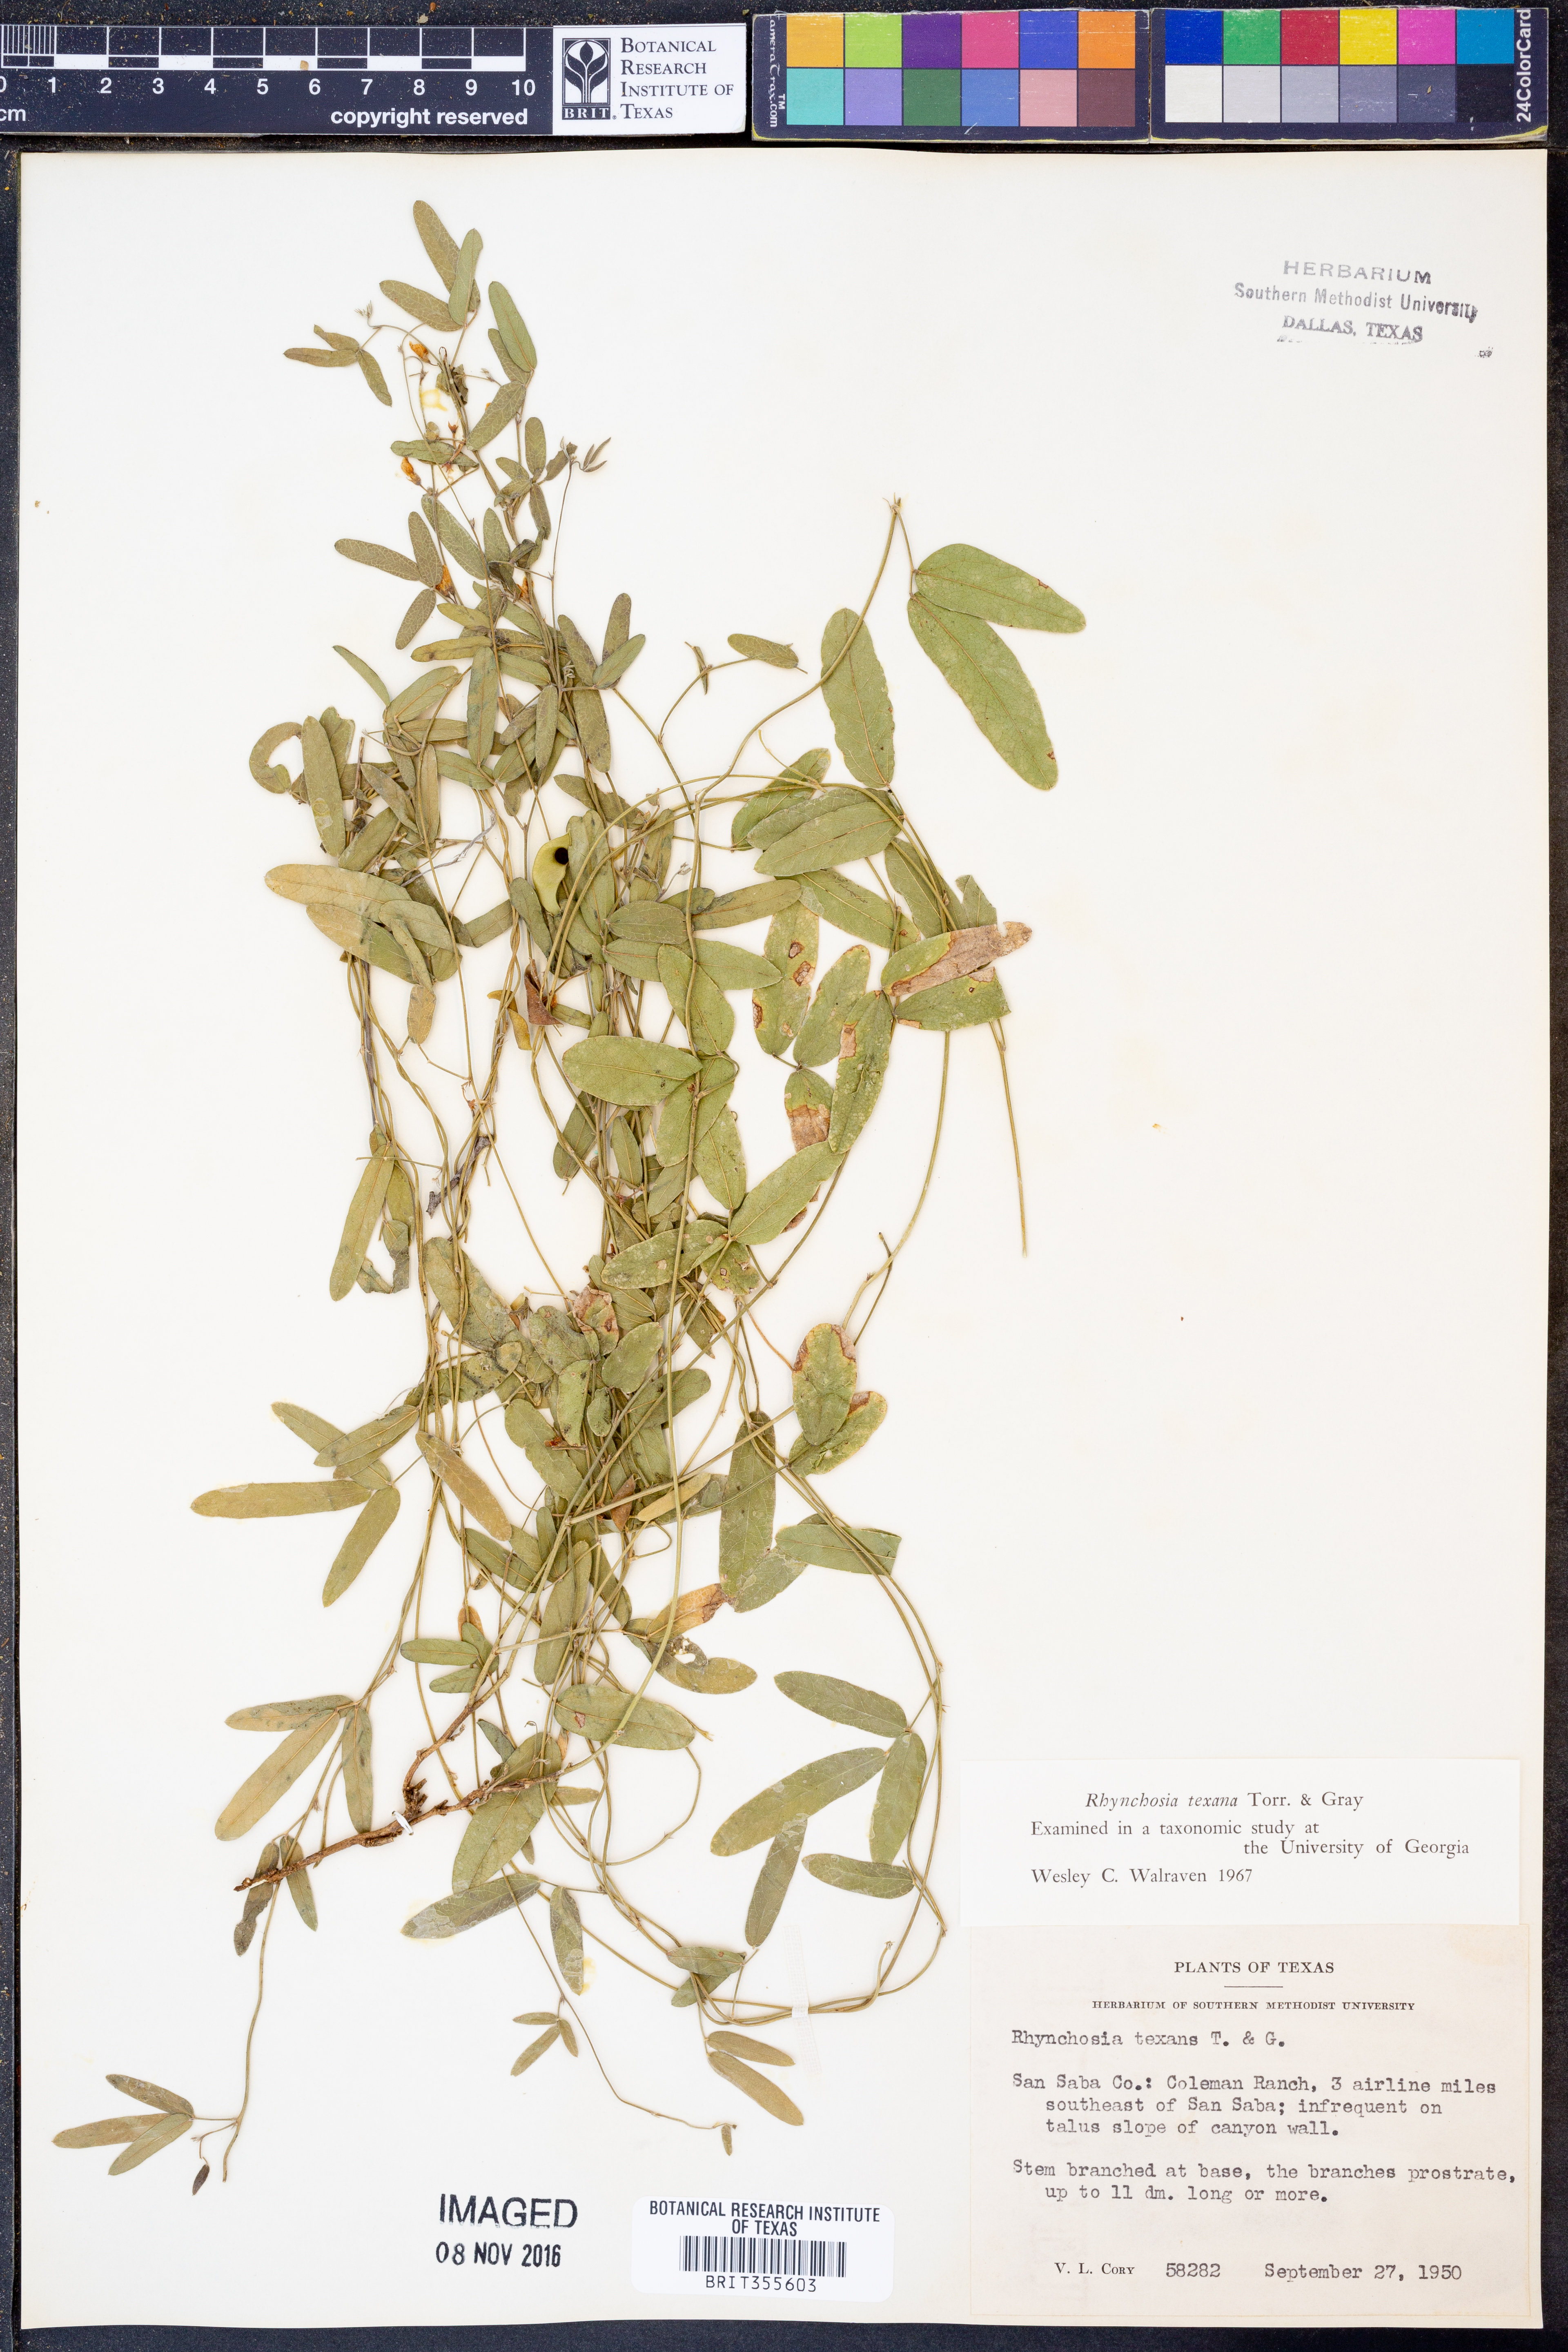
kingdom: Plantae
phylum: Tracheophyta
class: Magnoliopsida
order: Fabales
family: Fabaceae
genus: Rhynchosia
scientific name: Rhynchosia senna
